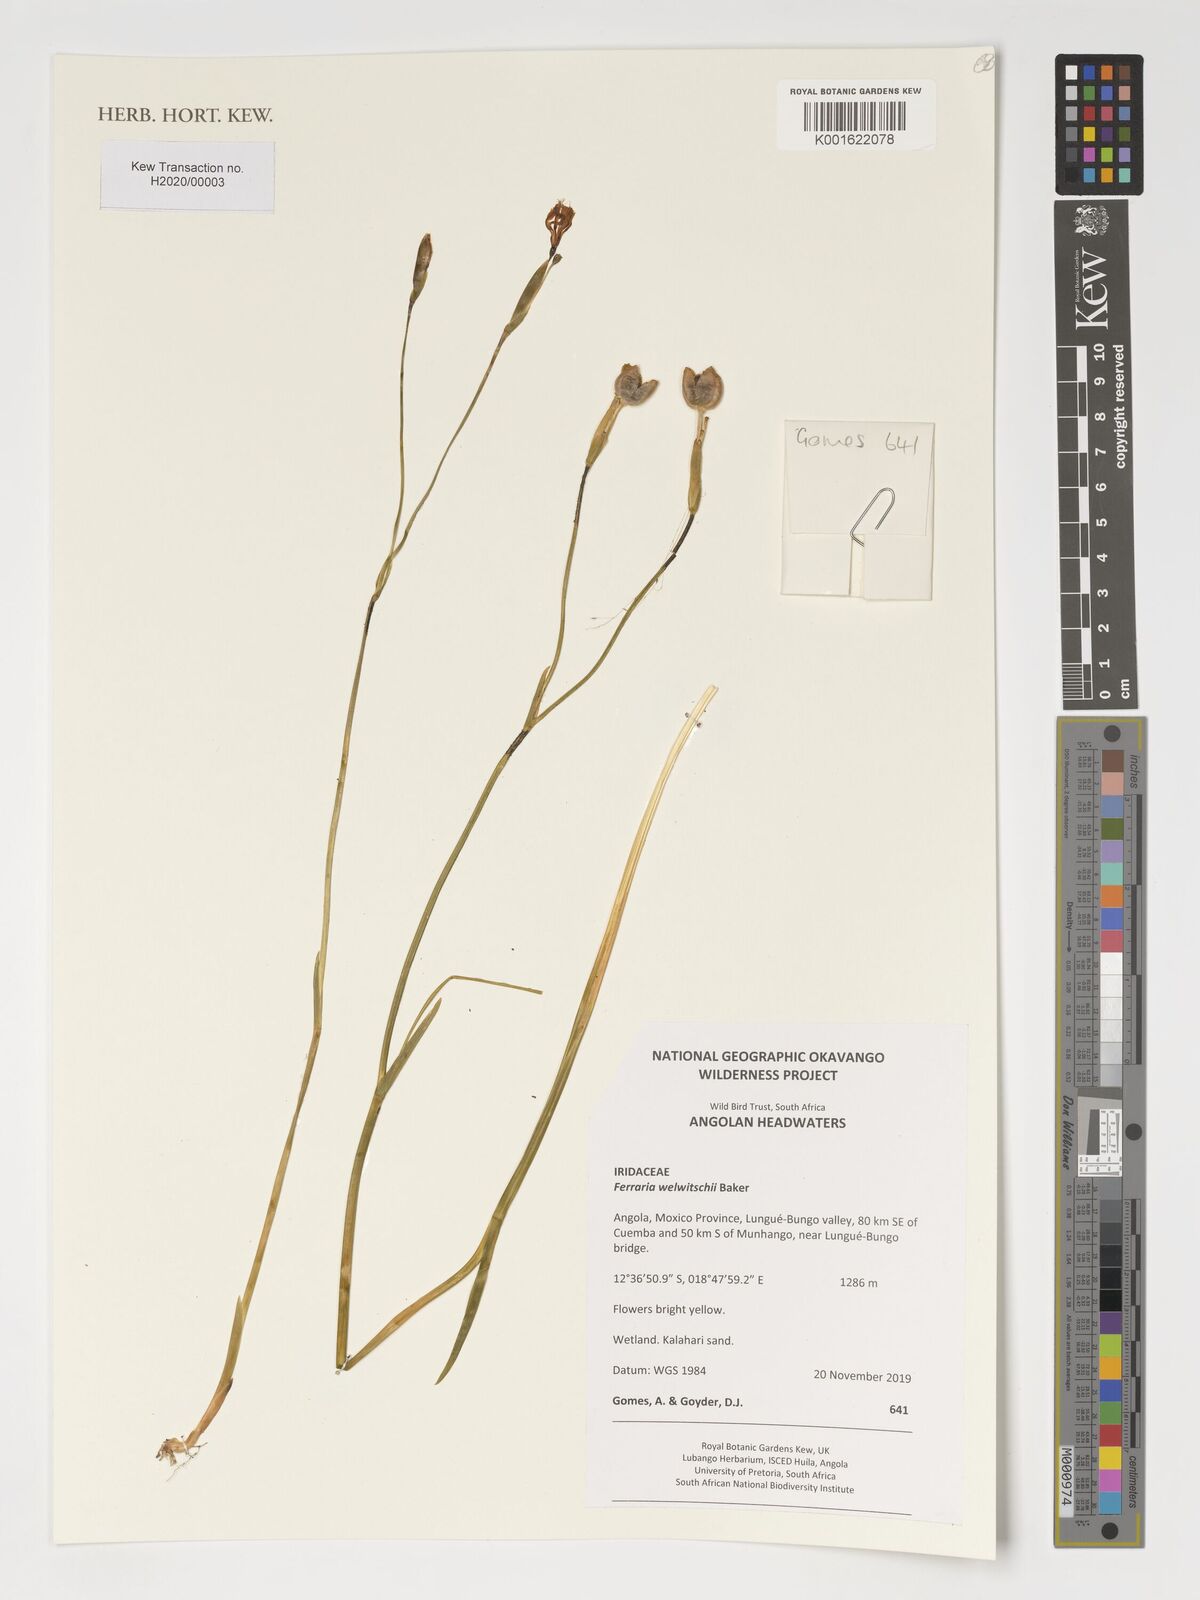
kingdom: Plantae
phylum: Tracheophyta
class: Liliopsida
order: Asparagales
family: Iridaceae
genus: Ferraria
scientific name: Ferraria welwitschii
